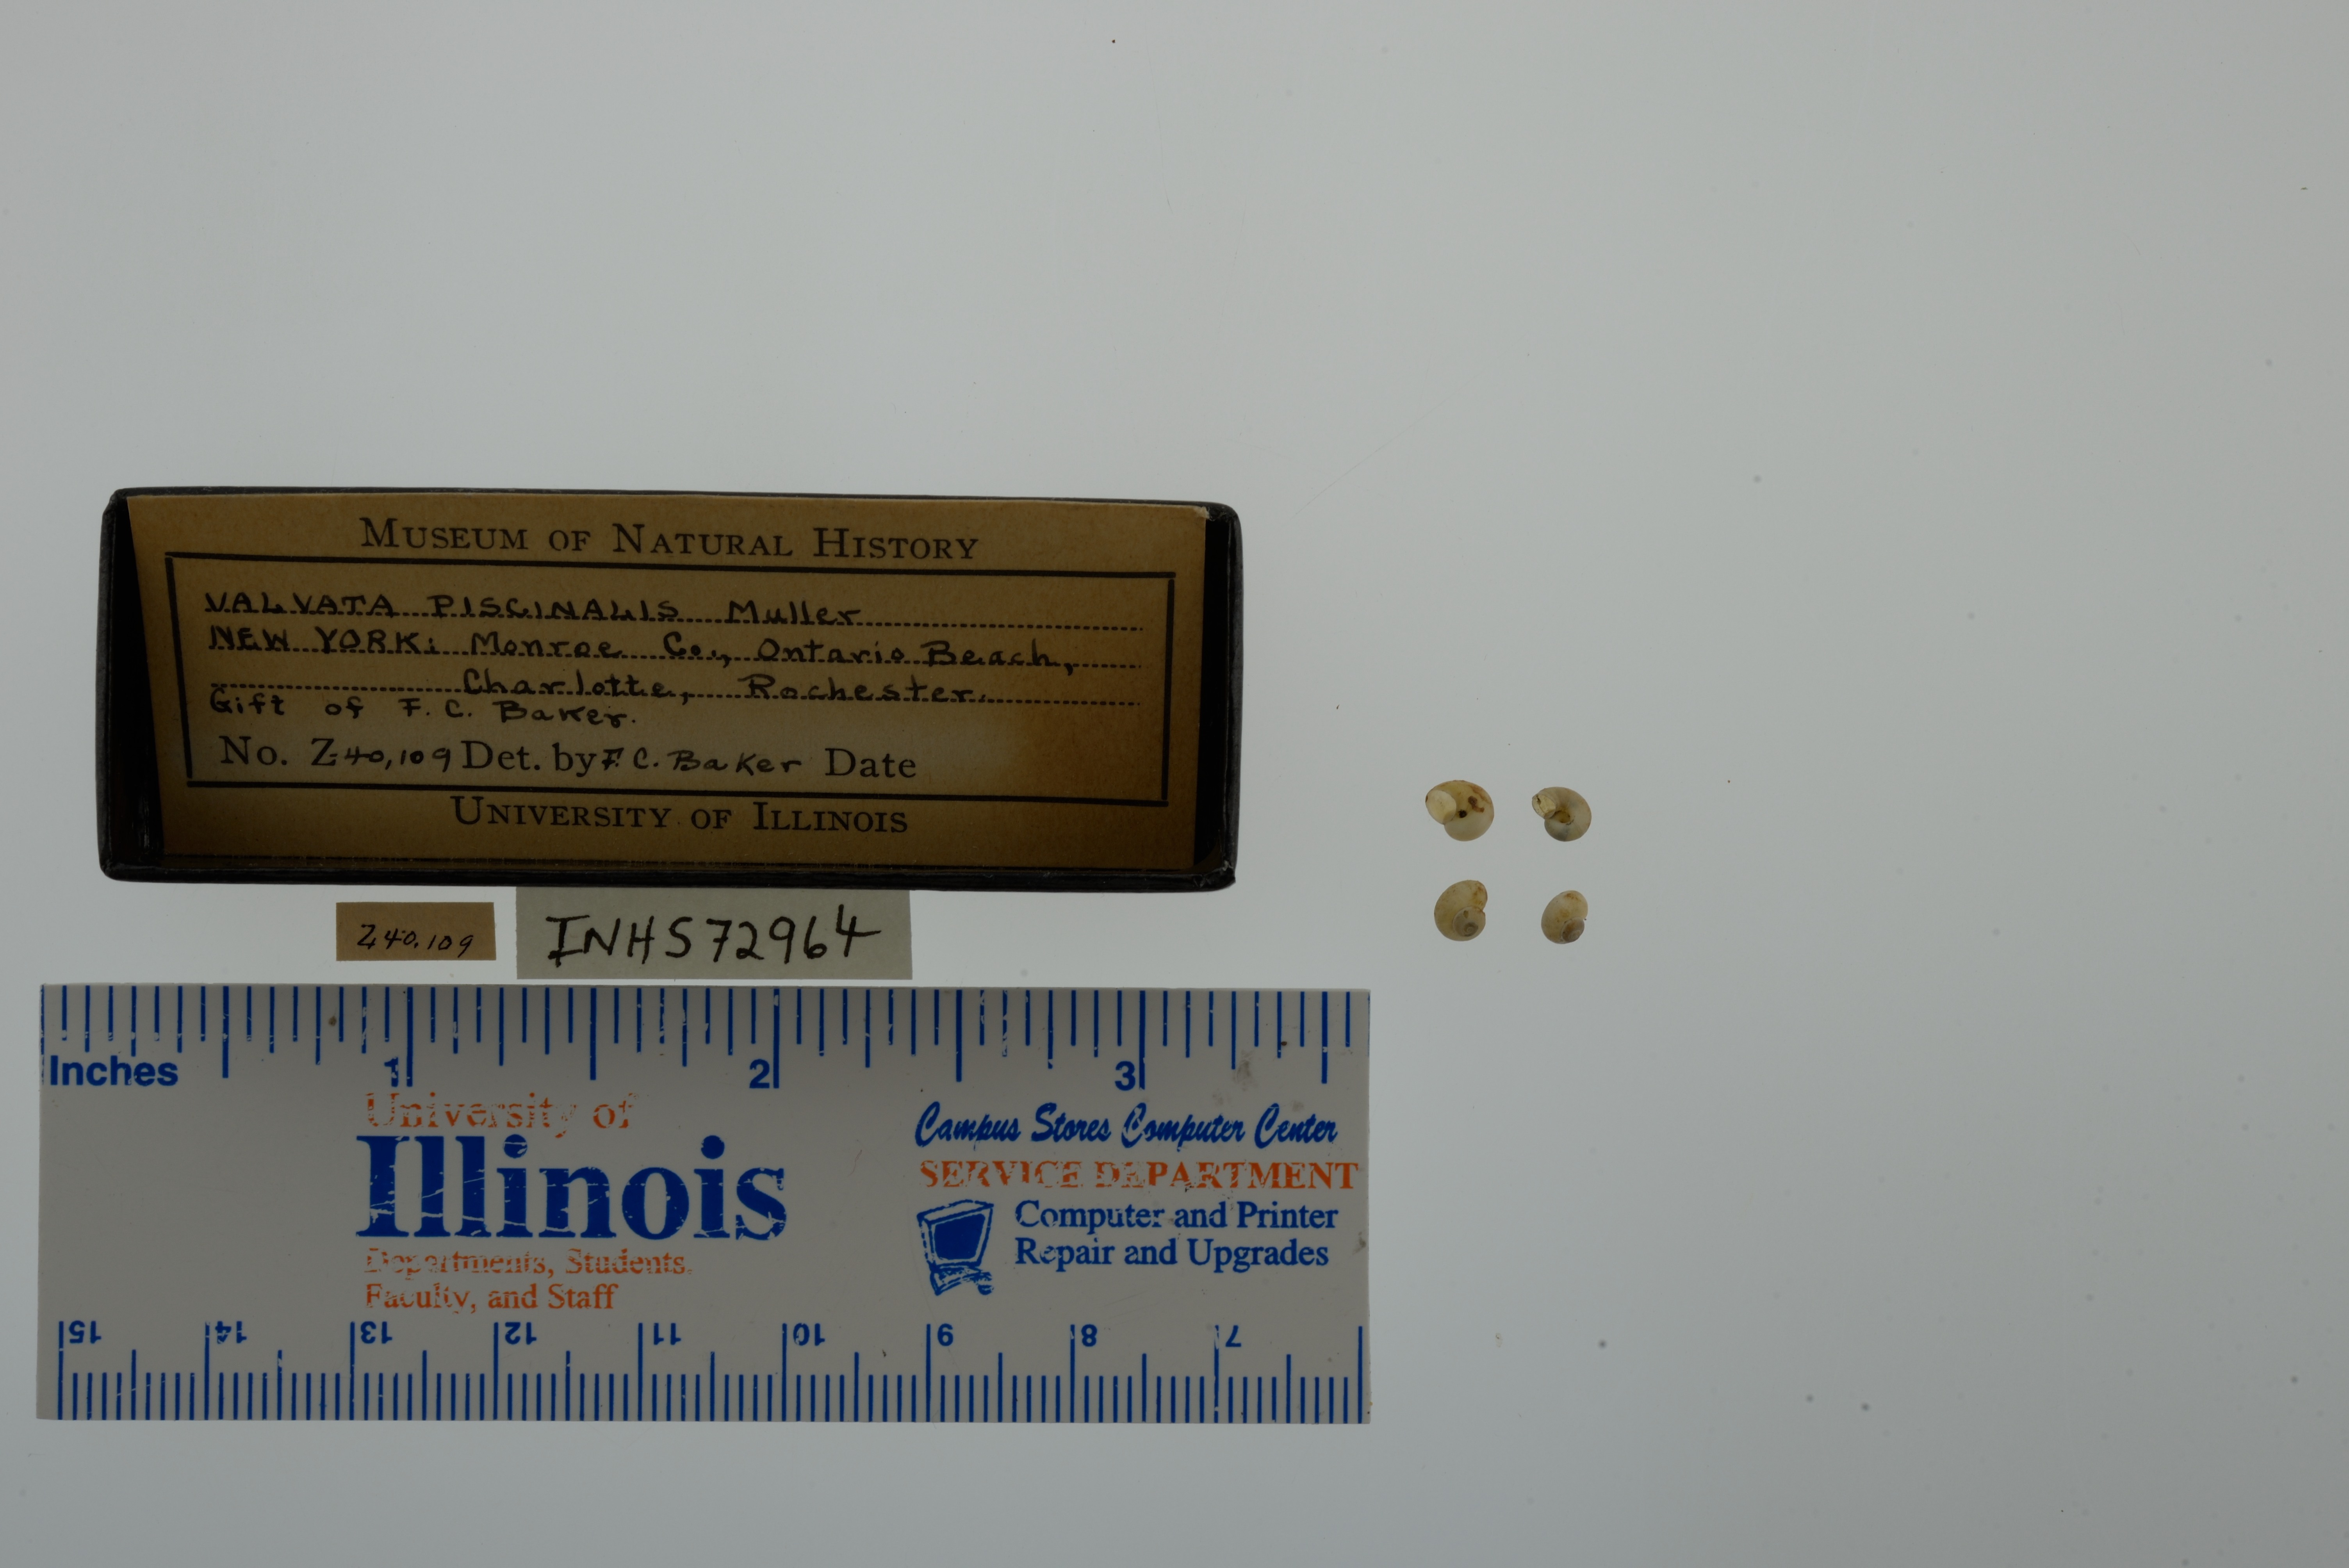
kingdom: Animalia
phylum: Mollusca
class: Gastropoda
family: Valvatidae
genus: Valvata
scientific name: Valvata piscinalis
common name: European valve snail
